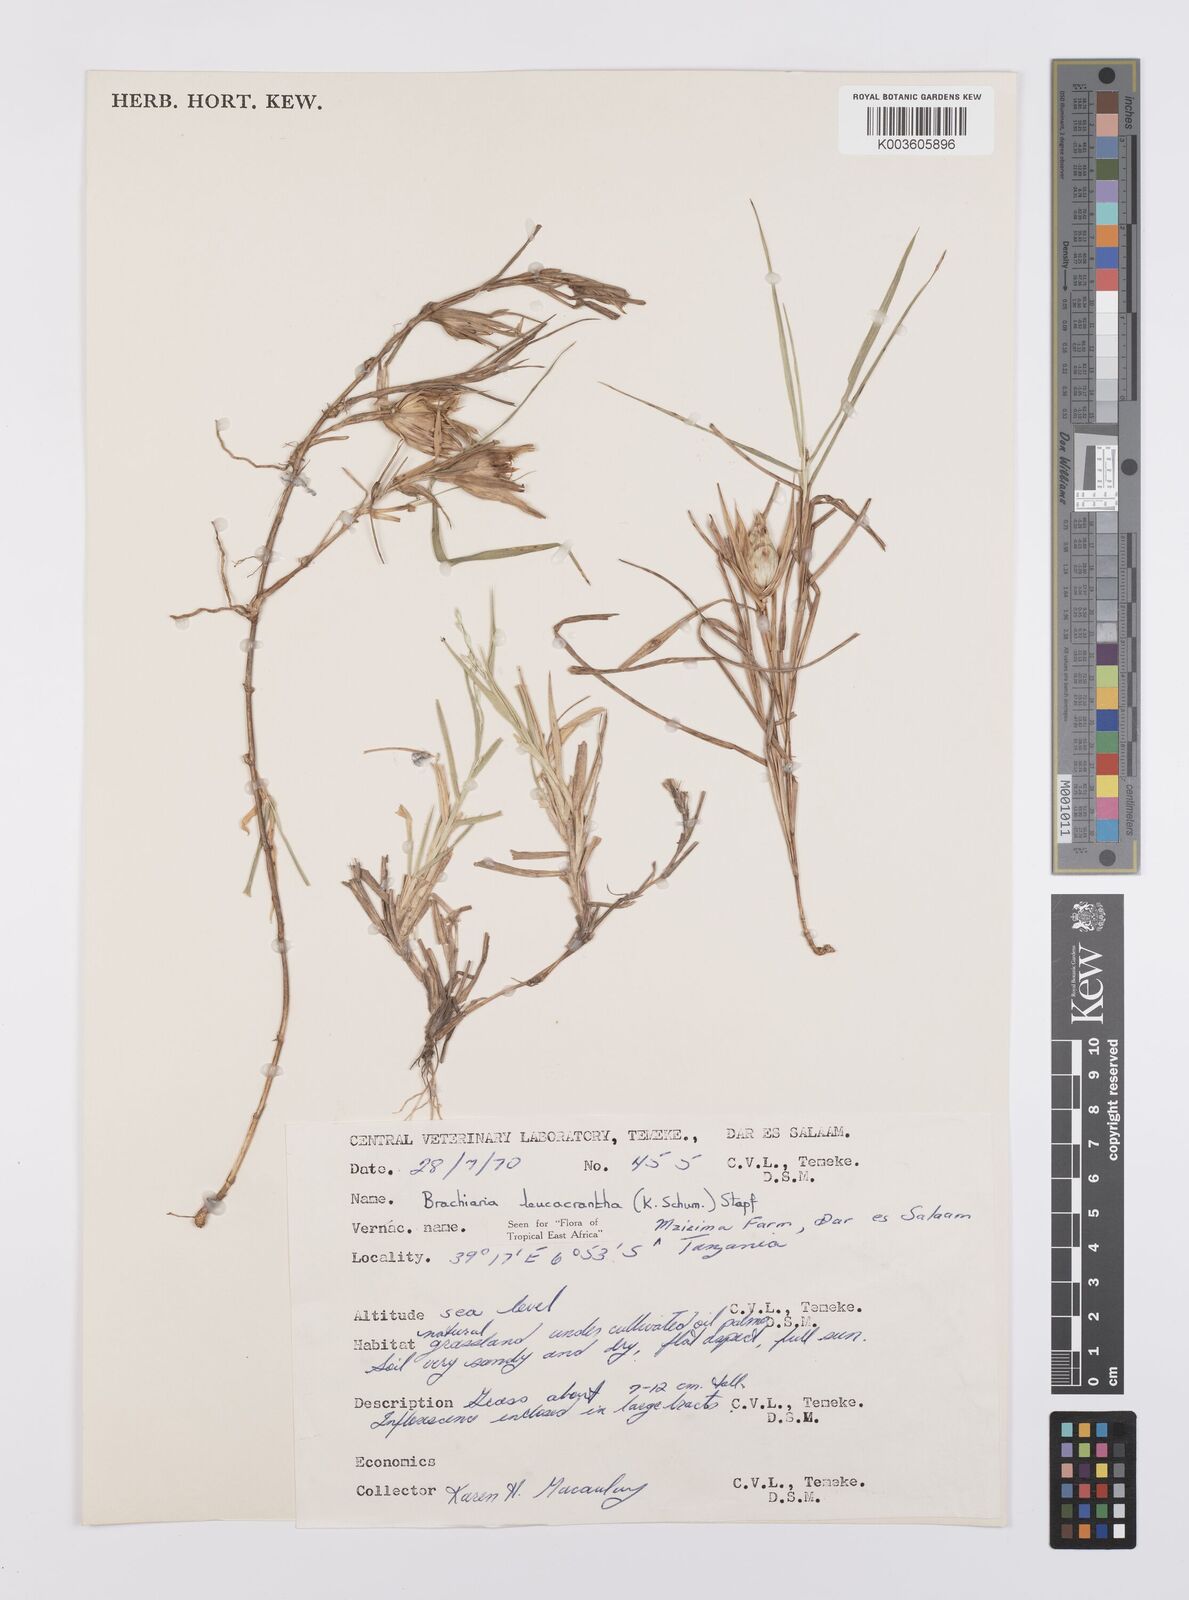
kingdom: Plantae
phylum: Tracheophyta
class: Liliopsida
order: Poales
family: Poaceae
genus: Urochloa
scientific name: Urochloa xantholeuca
